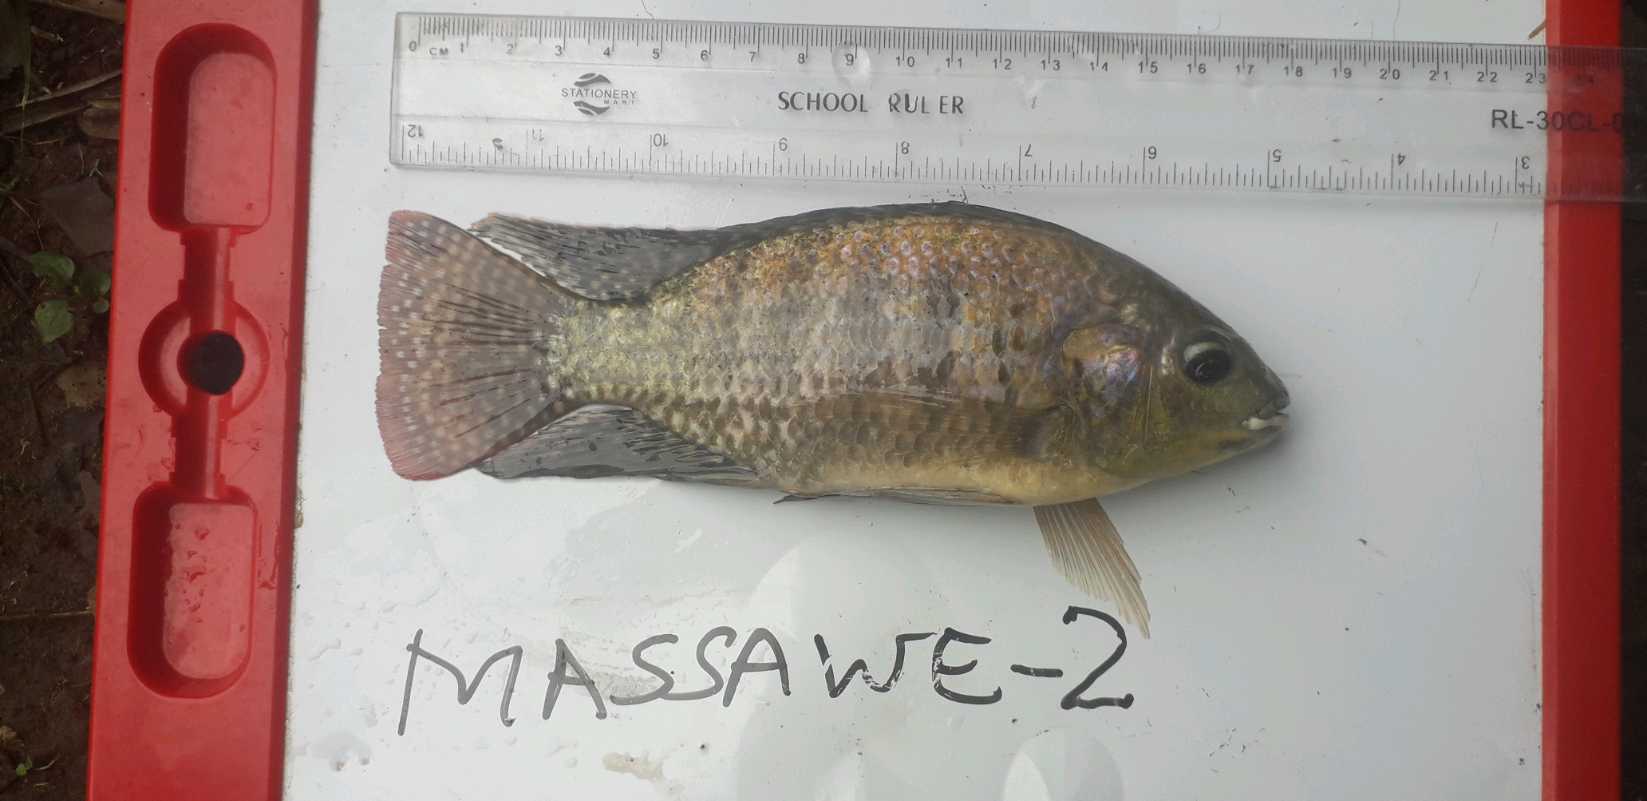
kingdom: Animalia
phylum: Chordata
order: Perciformes
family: Cichlidae
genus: Oreochromis
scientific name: Oreochromis leucostictus
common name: Blue spotted tilapia
